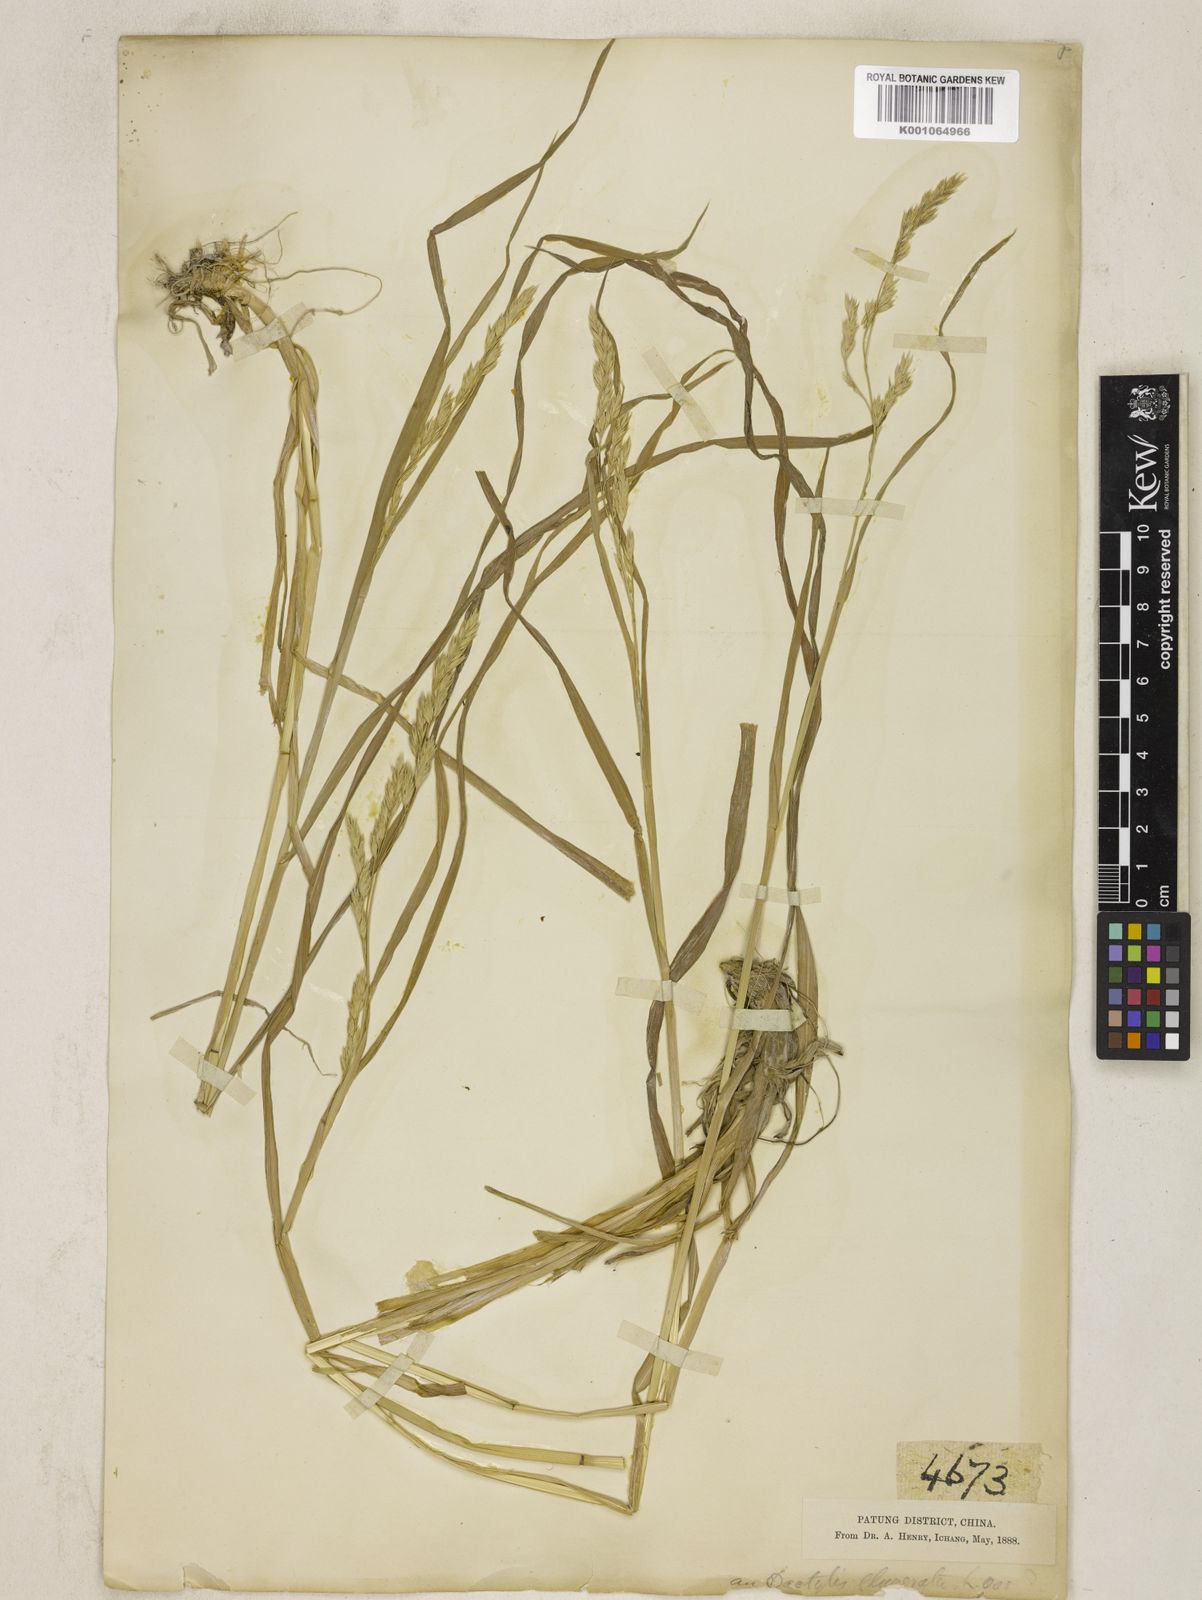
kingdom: Plantae
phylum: Tracheophyta
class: Liliopsida
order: Poales
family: Poaceae
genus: Dactylis
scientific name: Dactylis glomerata
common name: Orchardgrass
